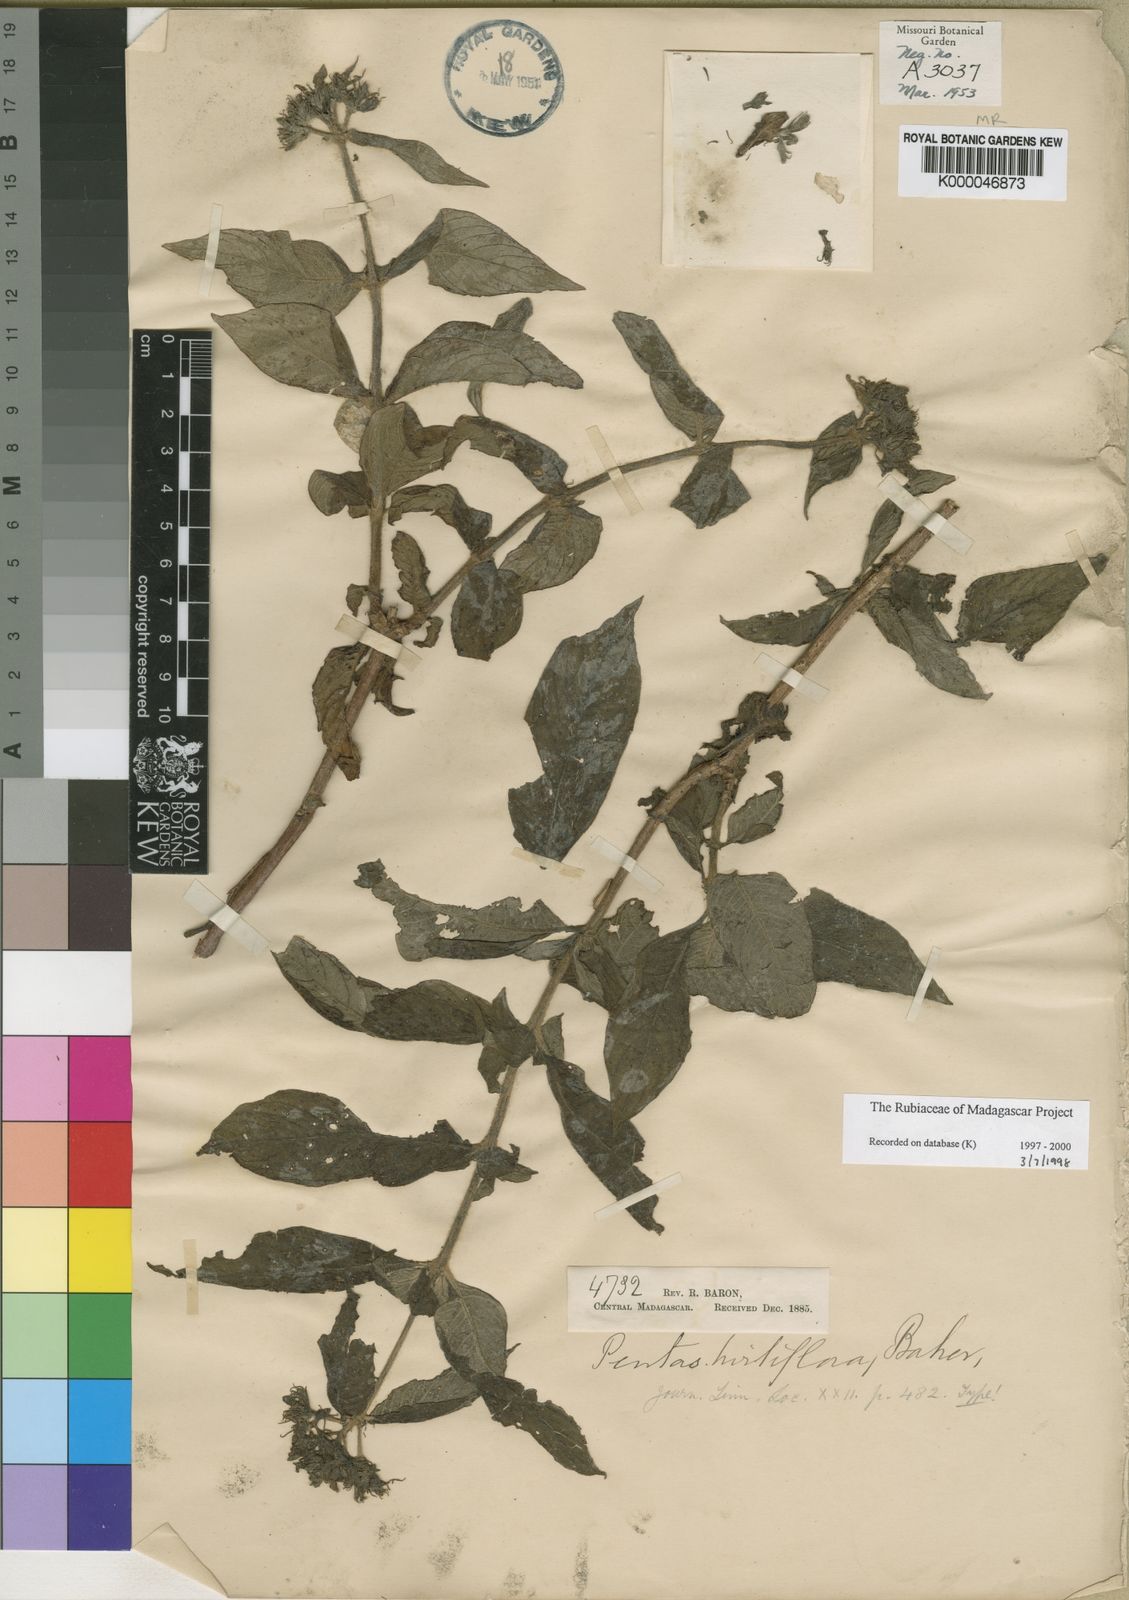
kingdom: Plantae
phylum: Tracheophyta
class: Magnoliopsida
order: Gentianales
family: Rubiaceae
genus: Phyllopentas
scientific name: Phyllopentas
